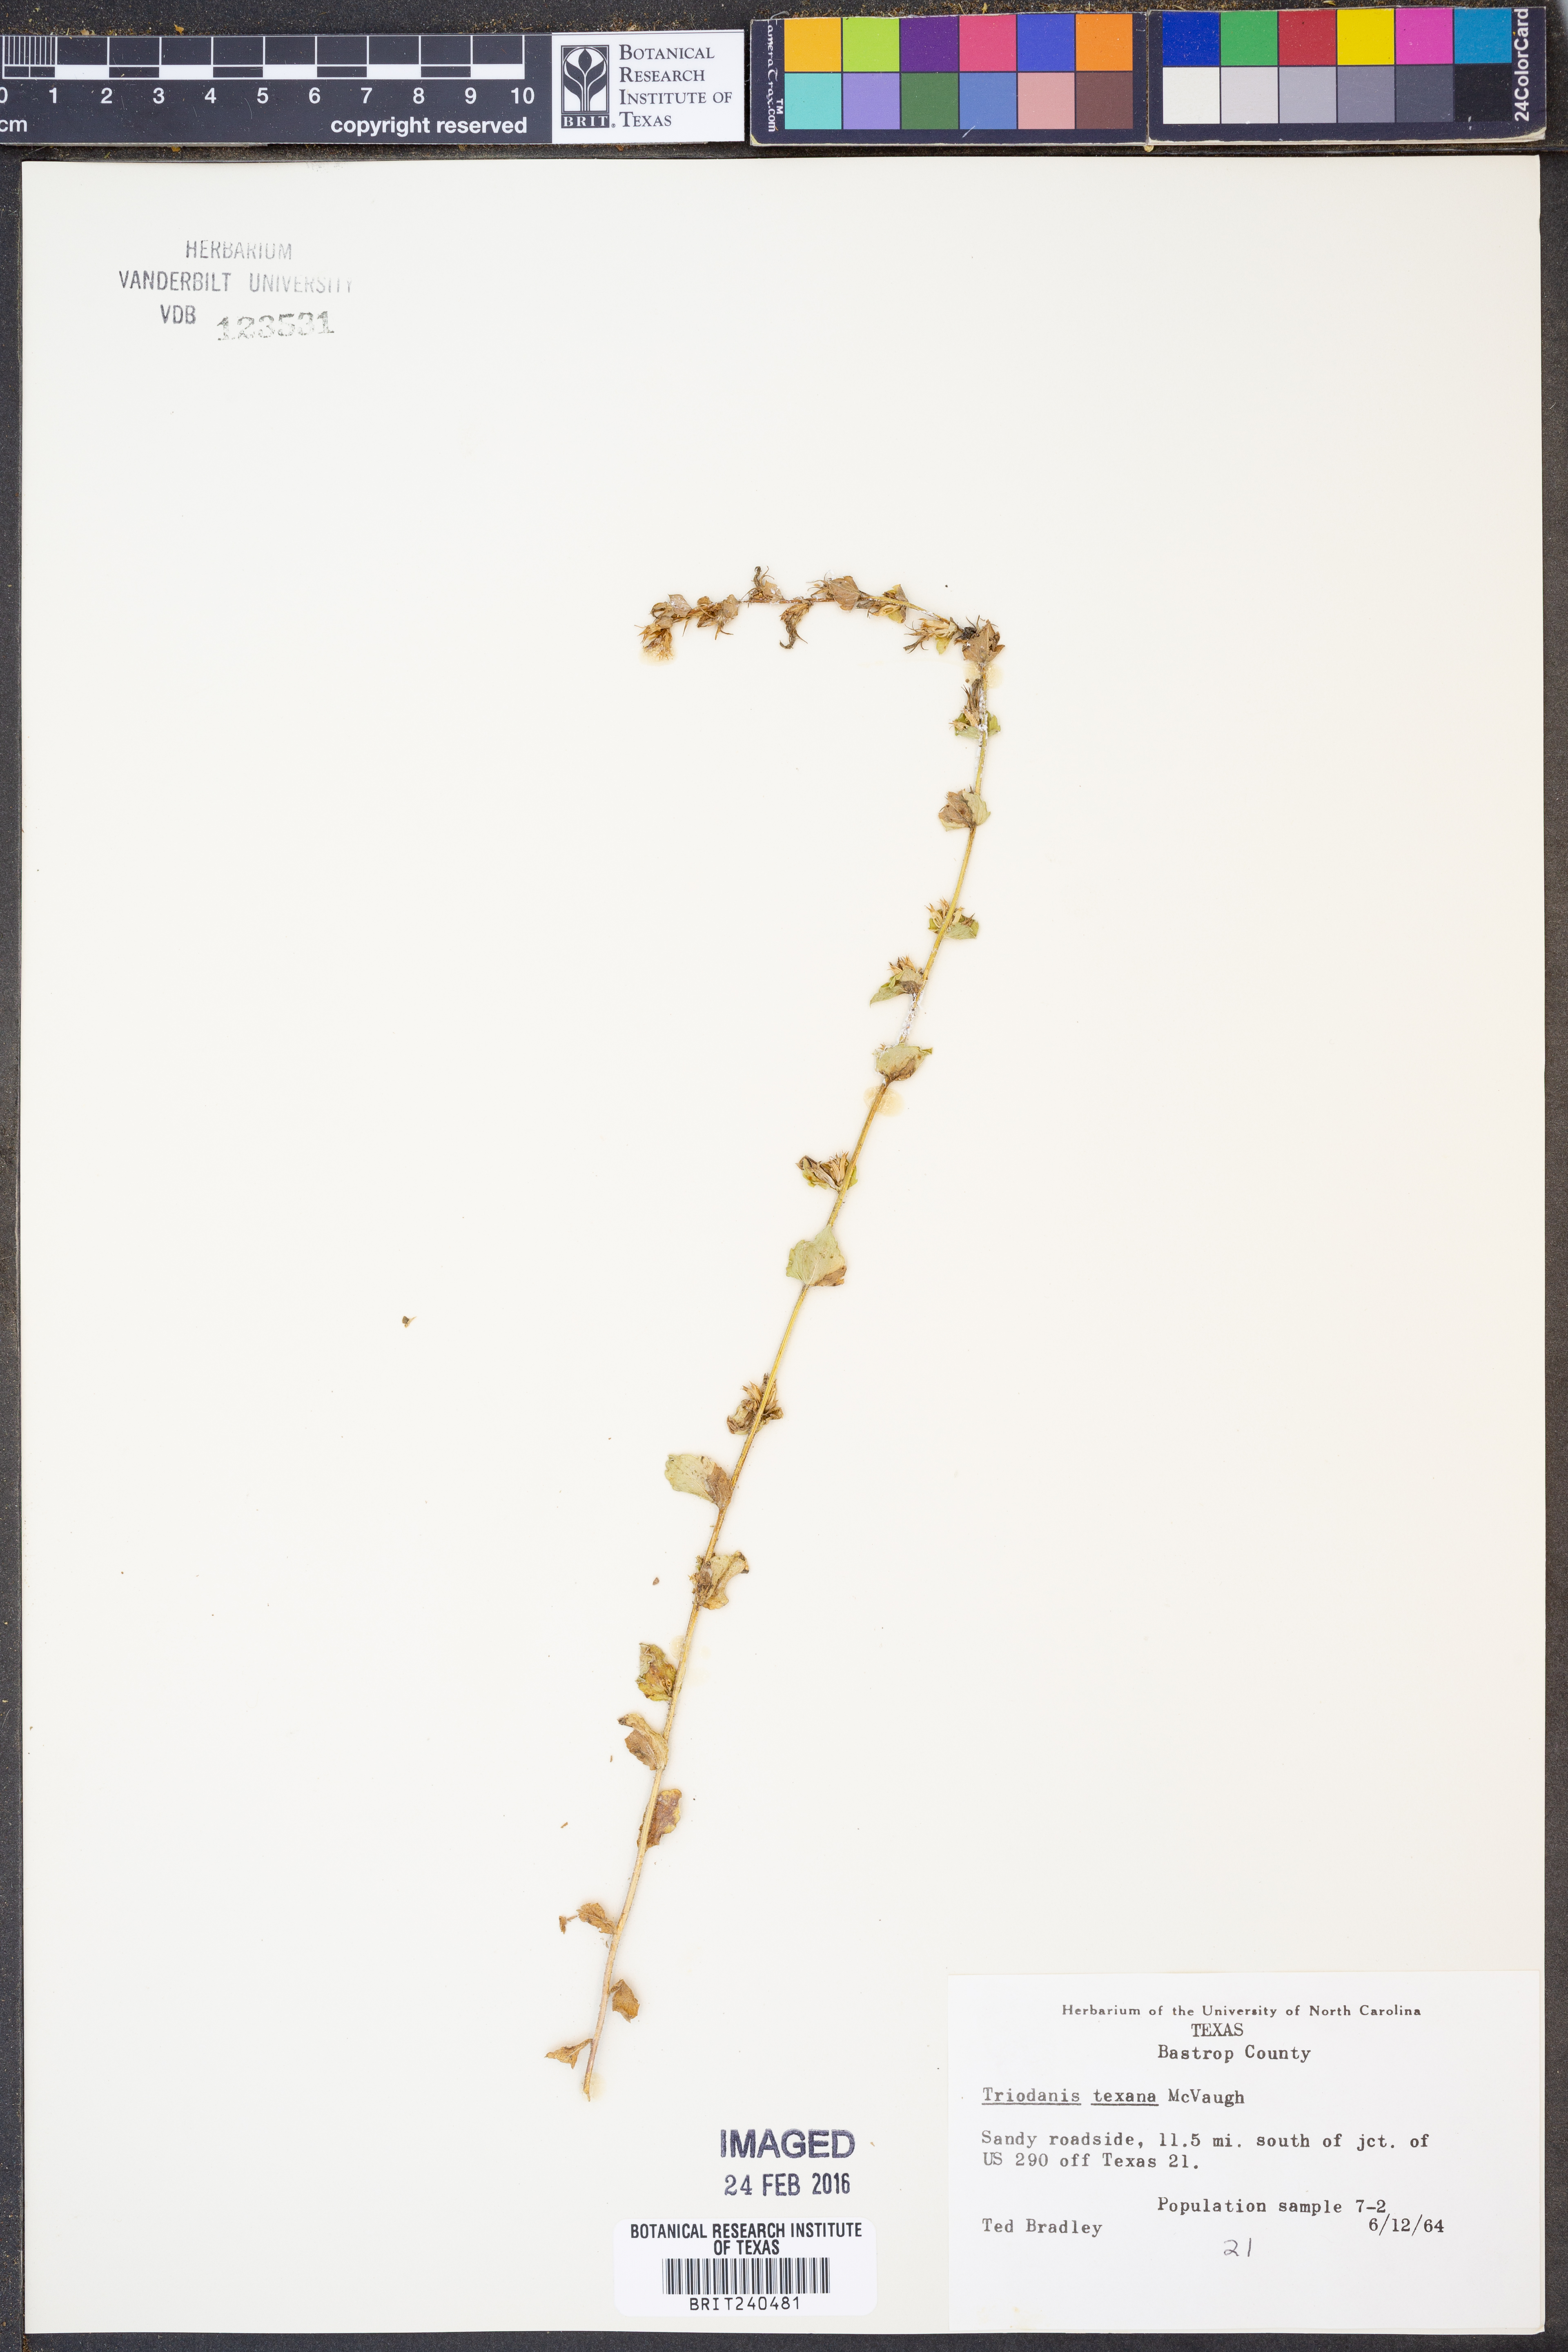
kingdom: Plantae
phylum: Tracheophyta
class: Magnoliopsida
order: Asterales
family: Campanulaceae
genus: Triodanis
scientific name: Triodanis texana
